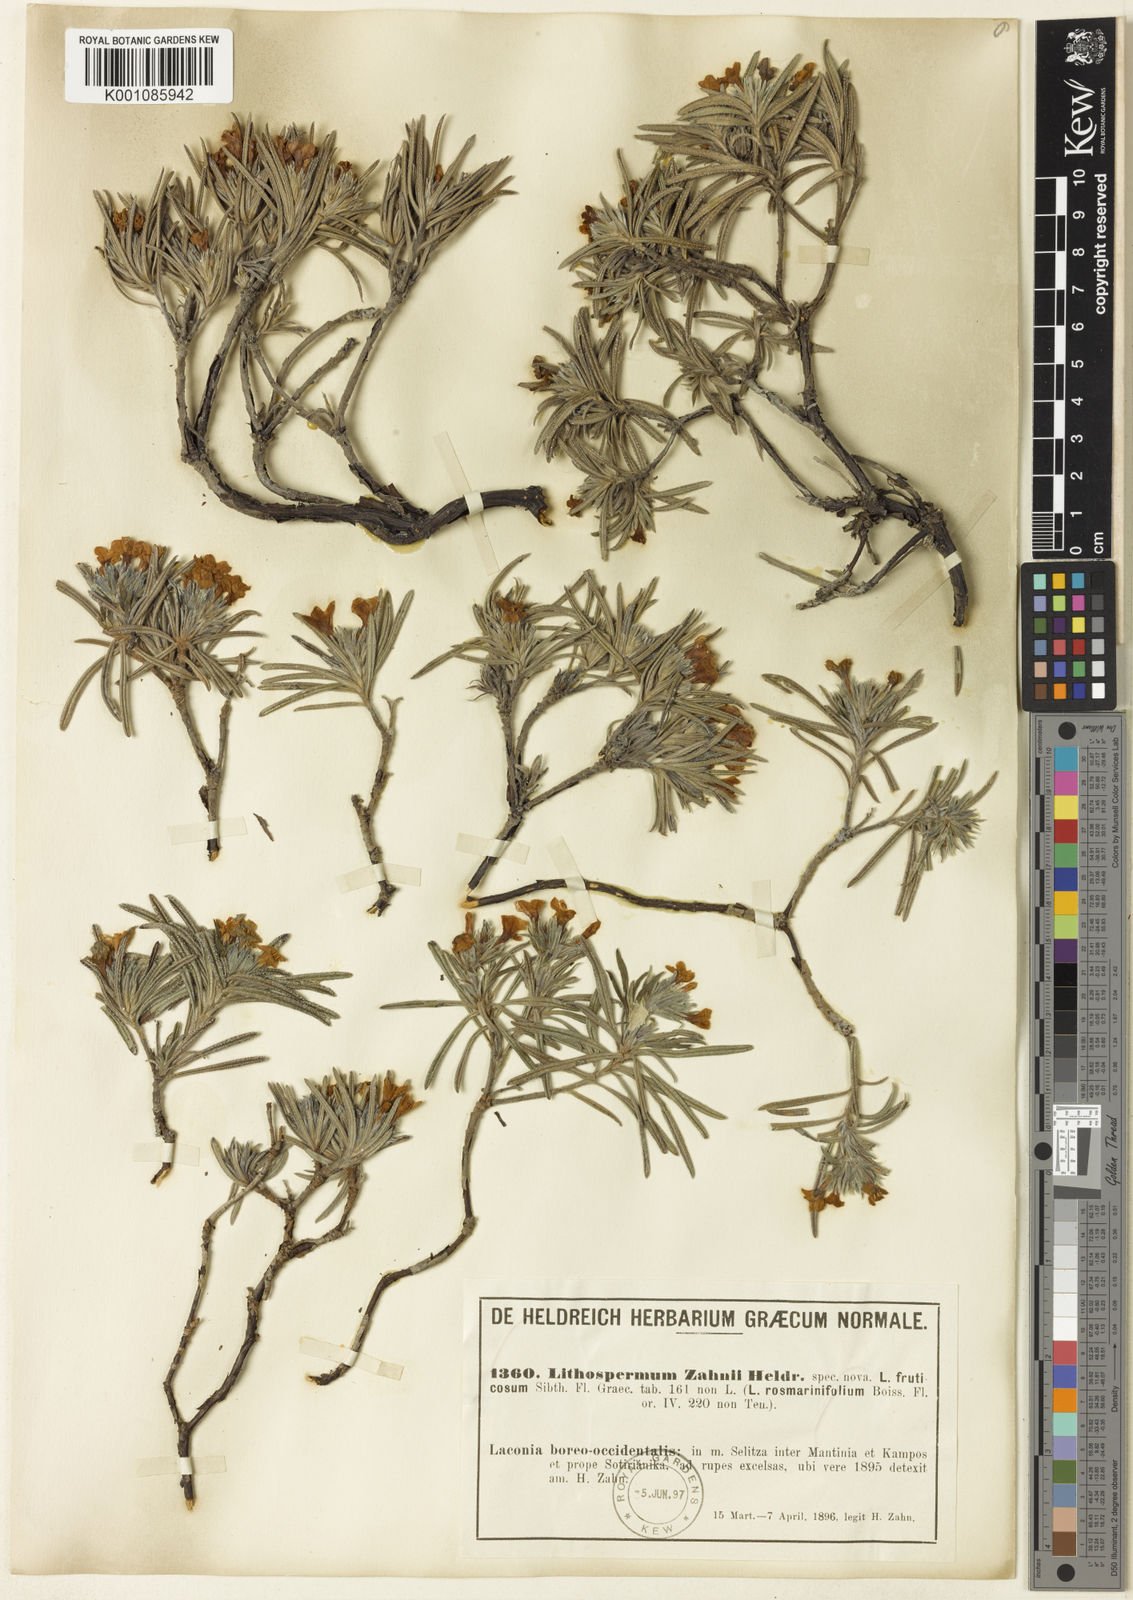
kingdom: Plantae
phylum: Tracheophyta
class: Magnoliopsida
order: Boraginales
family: Boraginaceae
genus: Lithodora
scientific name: Lithodora
